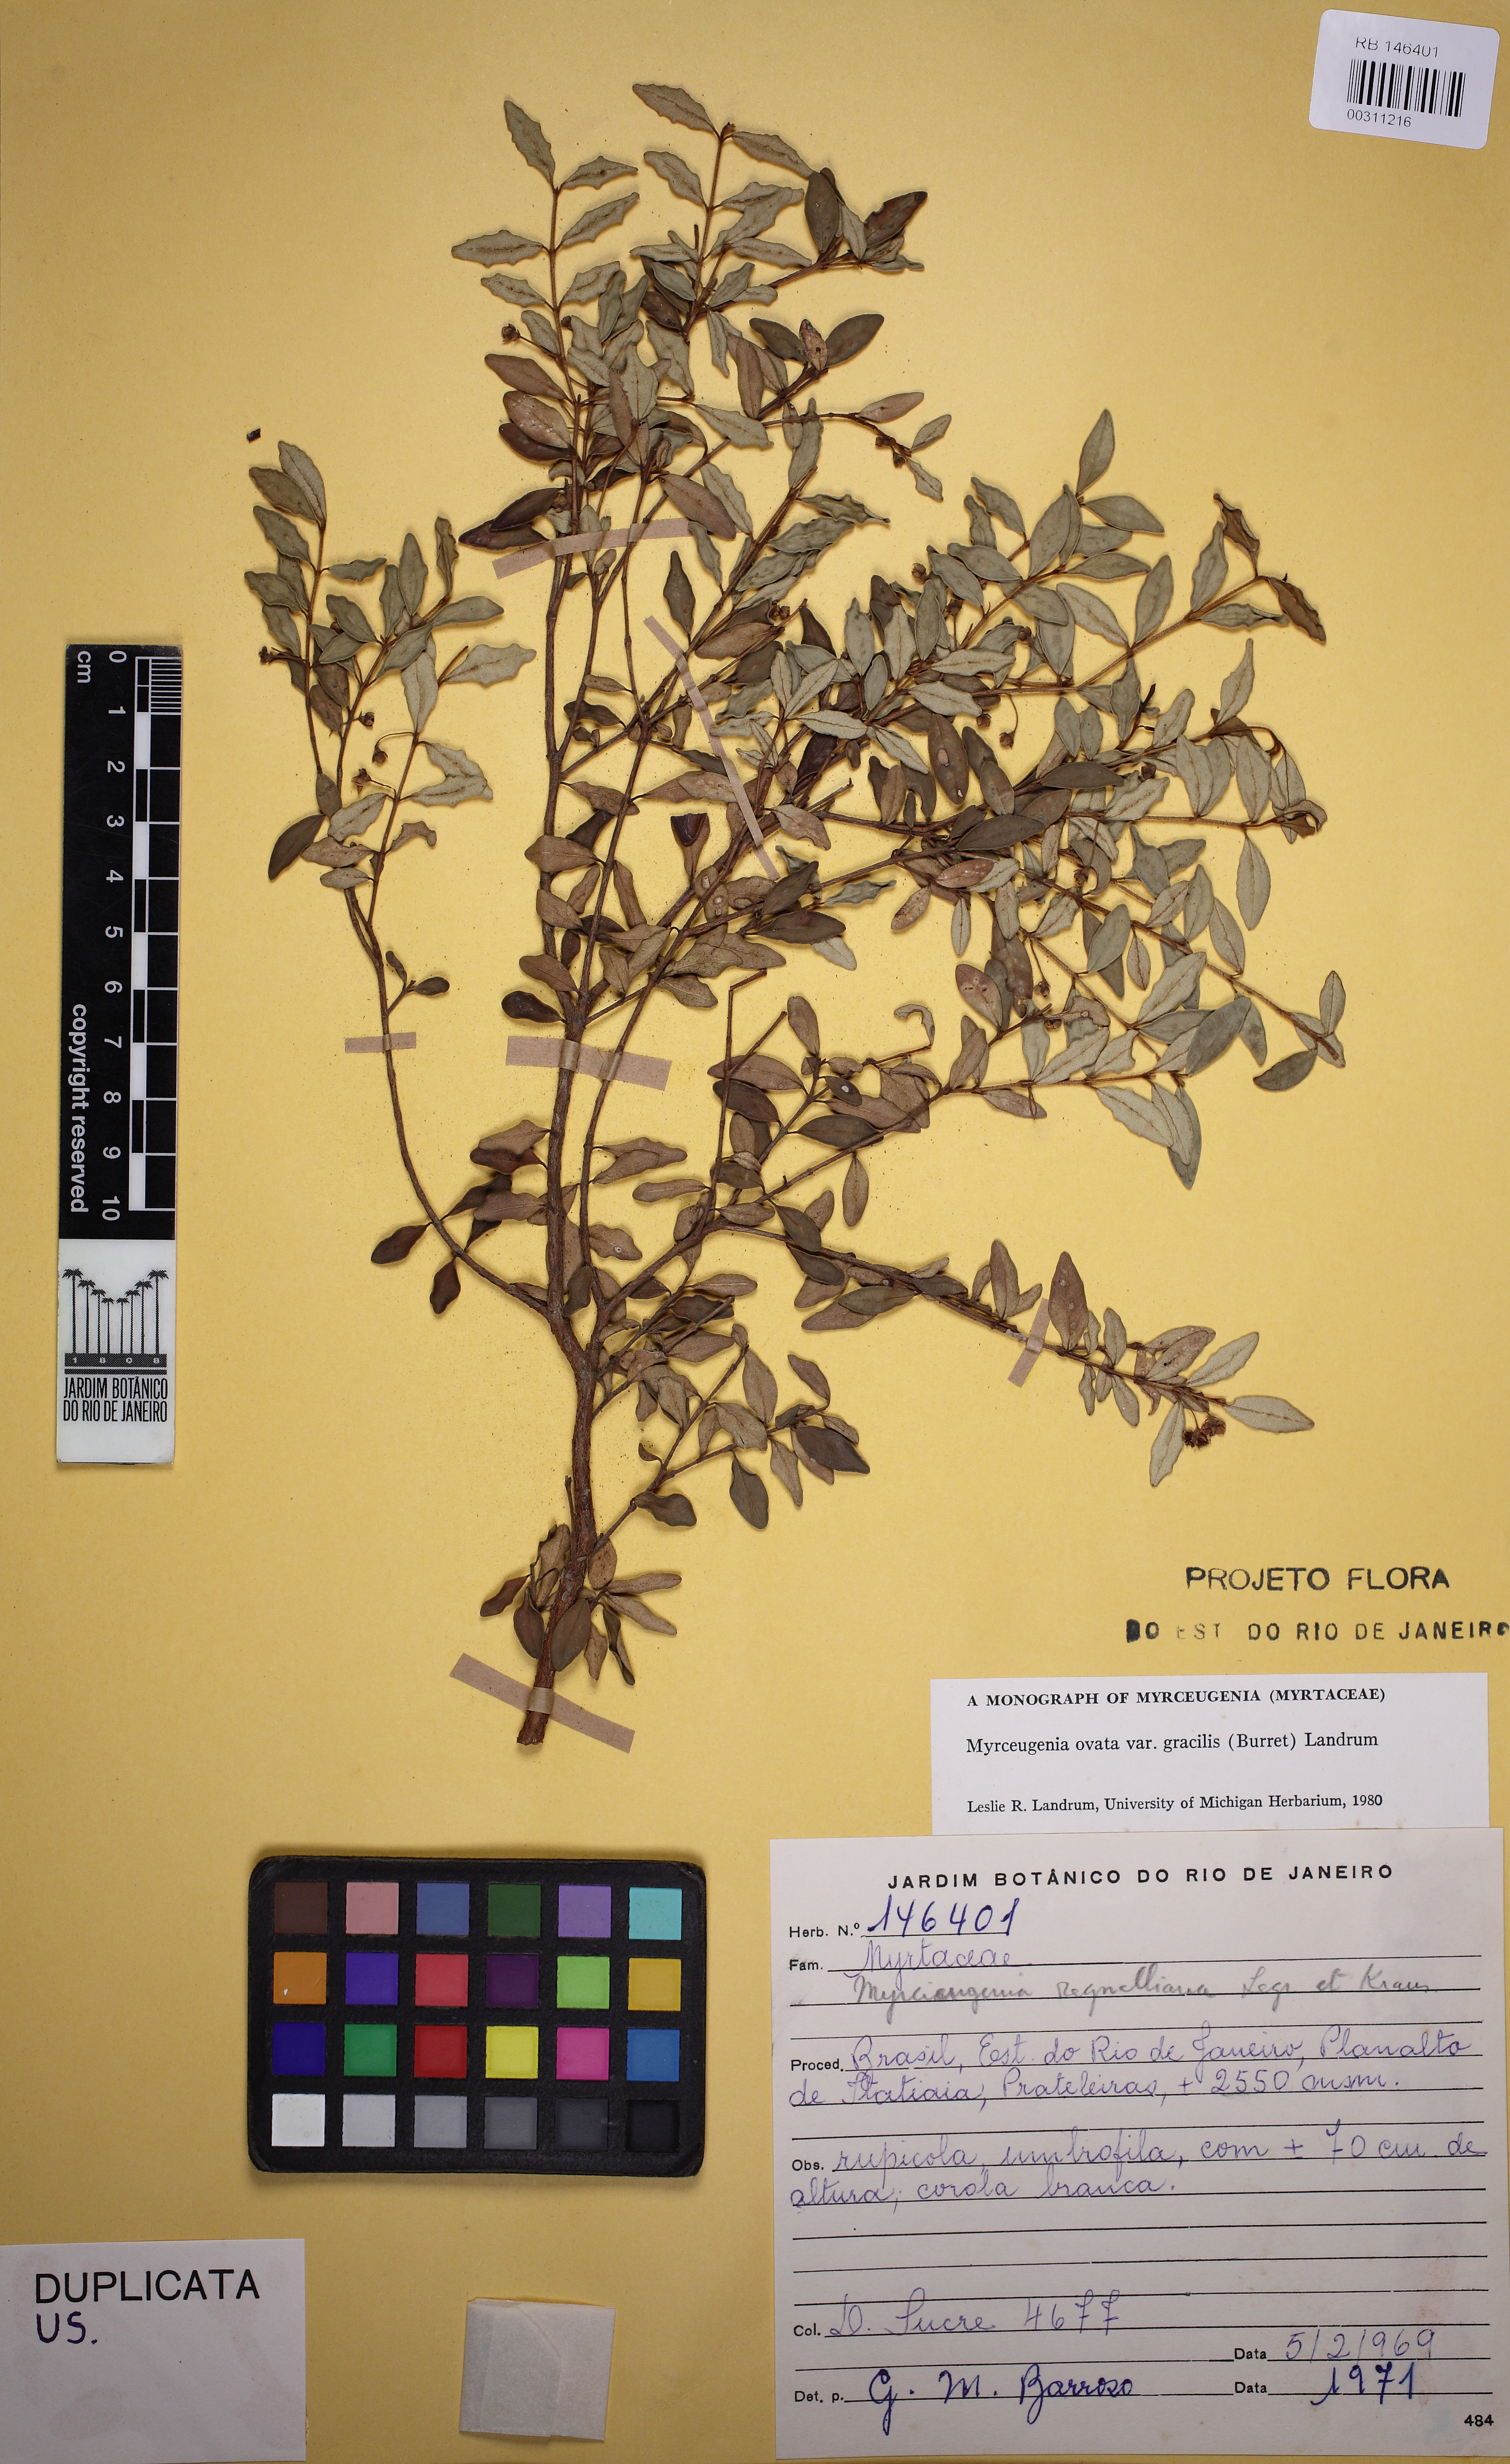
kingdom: Plantae
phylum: Tracheophyta
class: Magnoliopsida
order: Myrtales
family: Myrtaceae
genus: Myrceugenia
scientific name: Myrceugenia ovata
